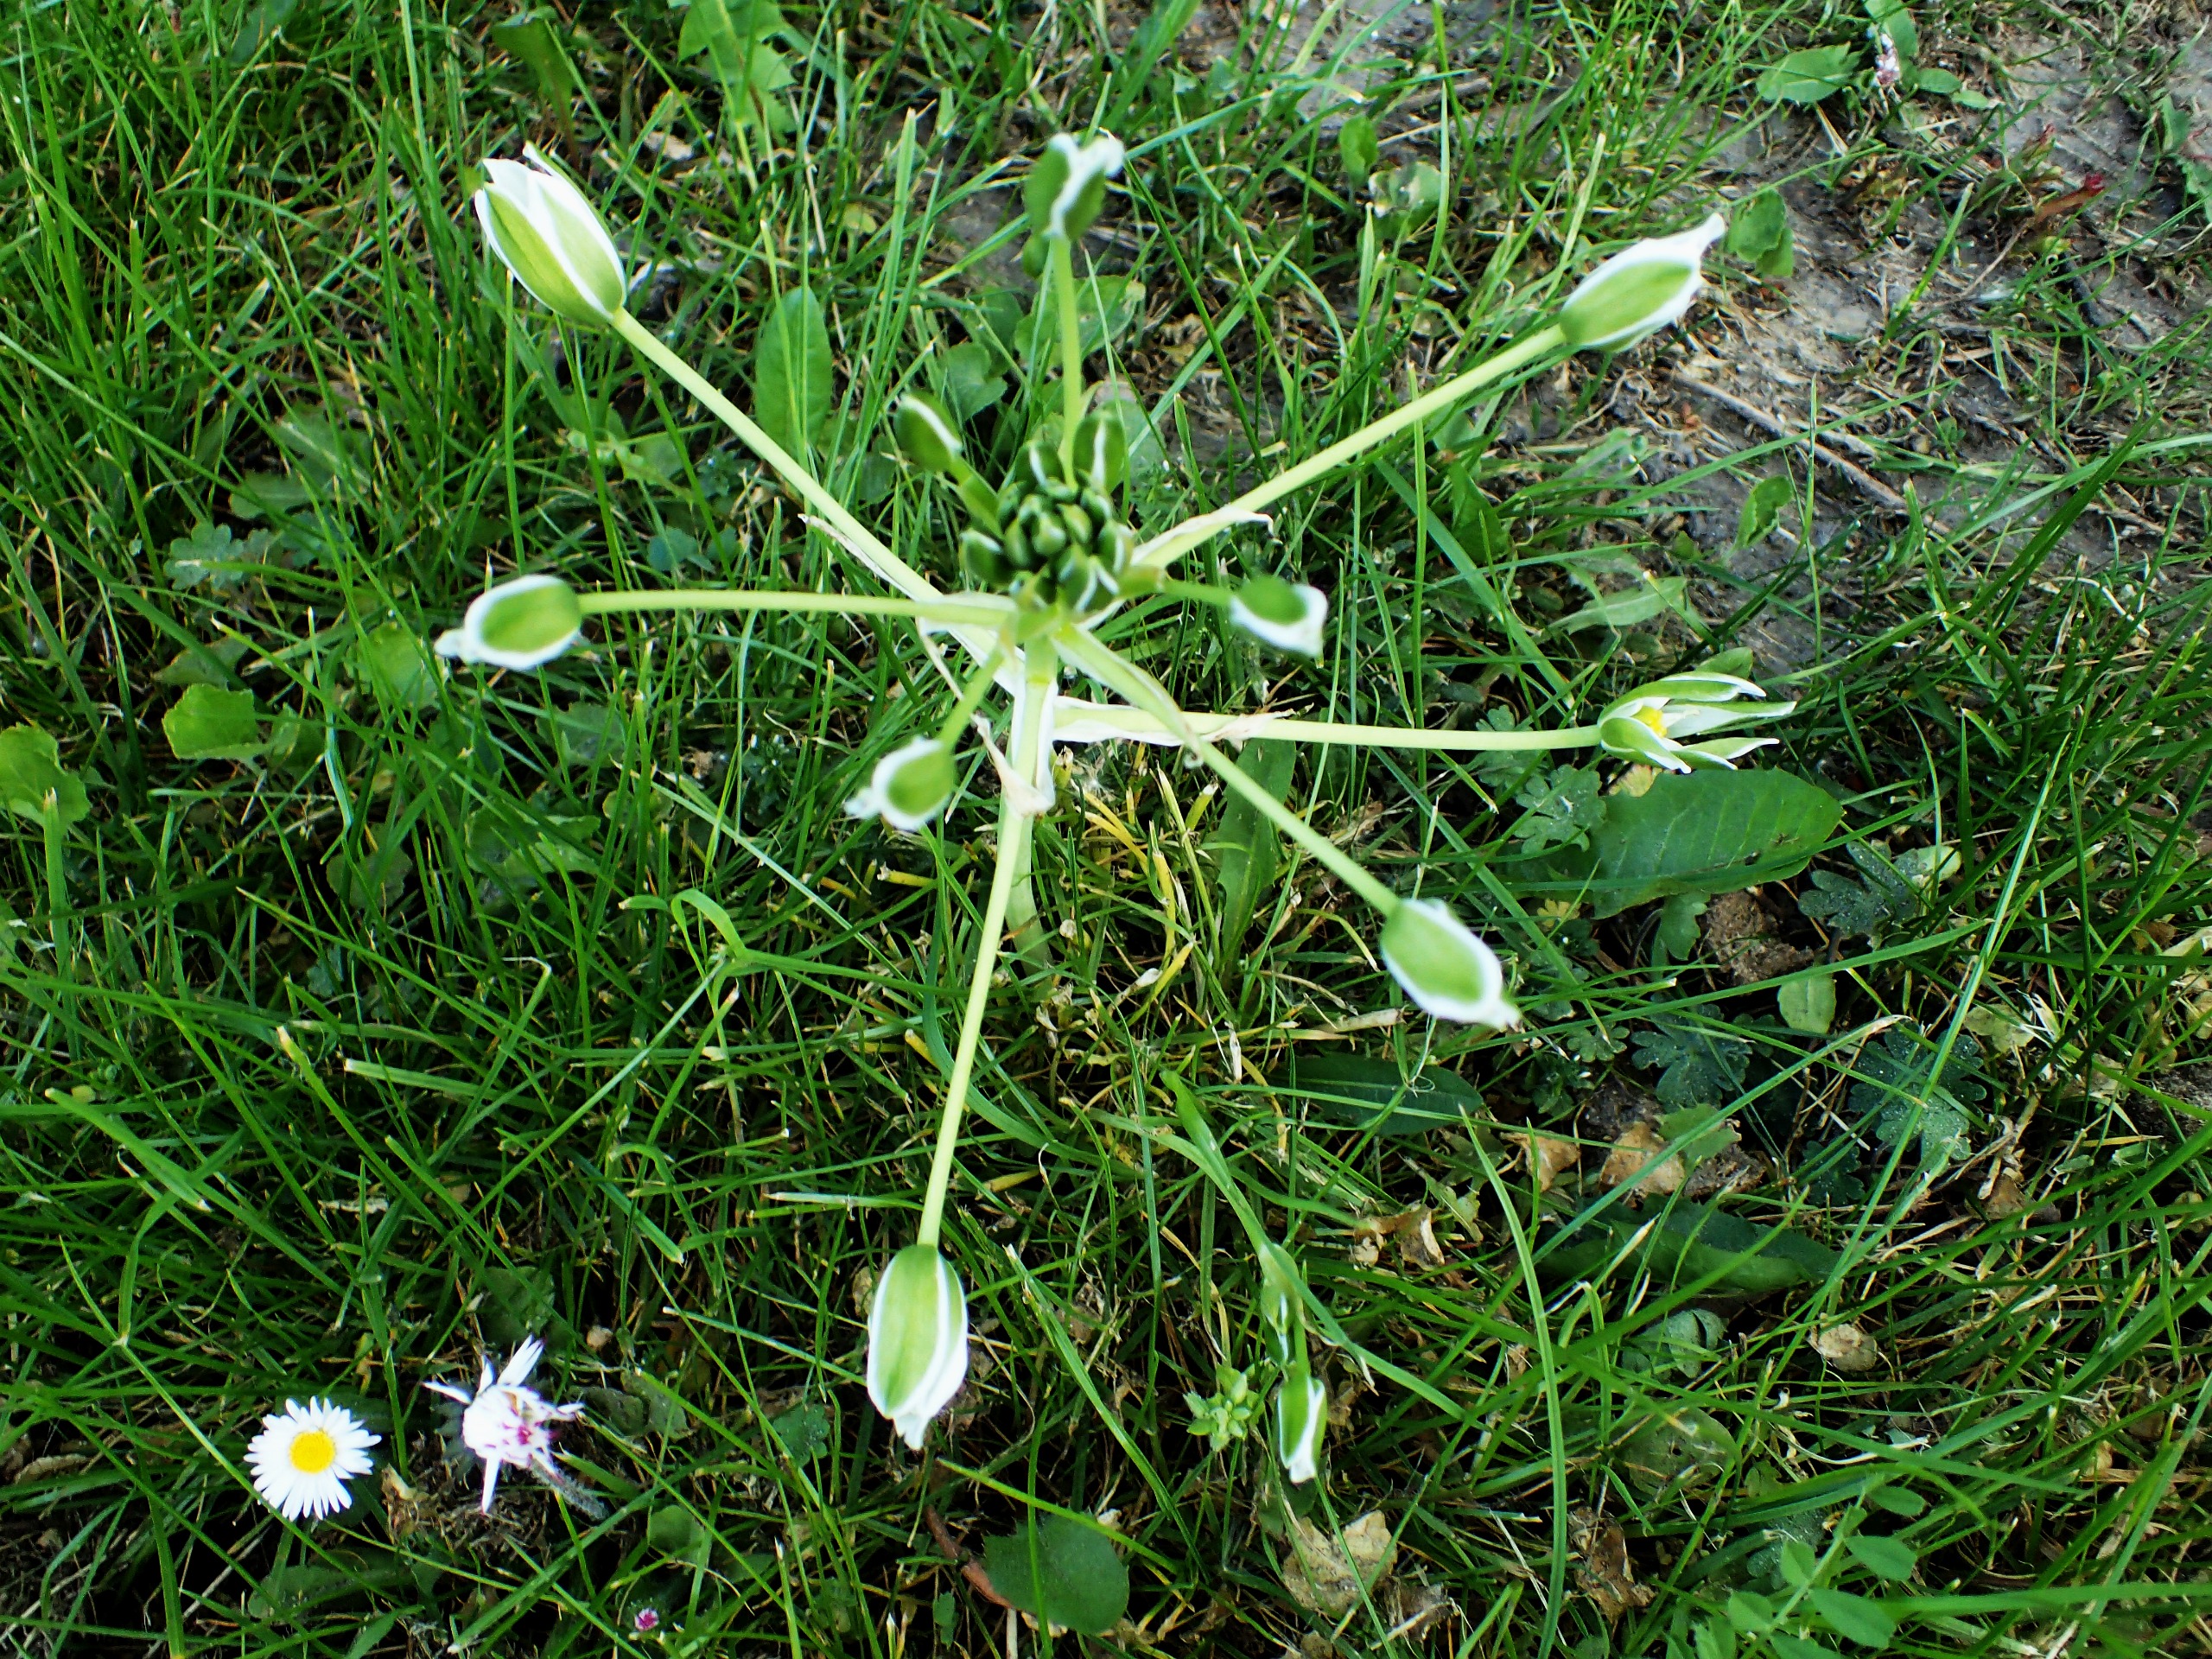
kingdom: Plantae
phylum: Tracheophyta
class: Liliopsida
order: Asparagales
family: Asparagaceae
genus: Ornithogalum
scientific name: Ornithogalum divergens
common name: Udspærret fuglemælk
